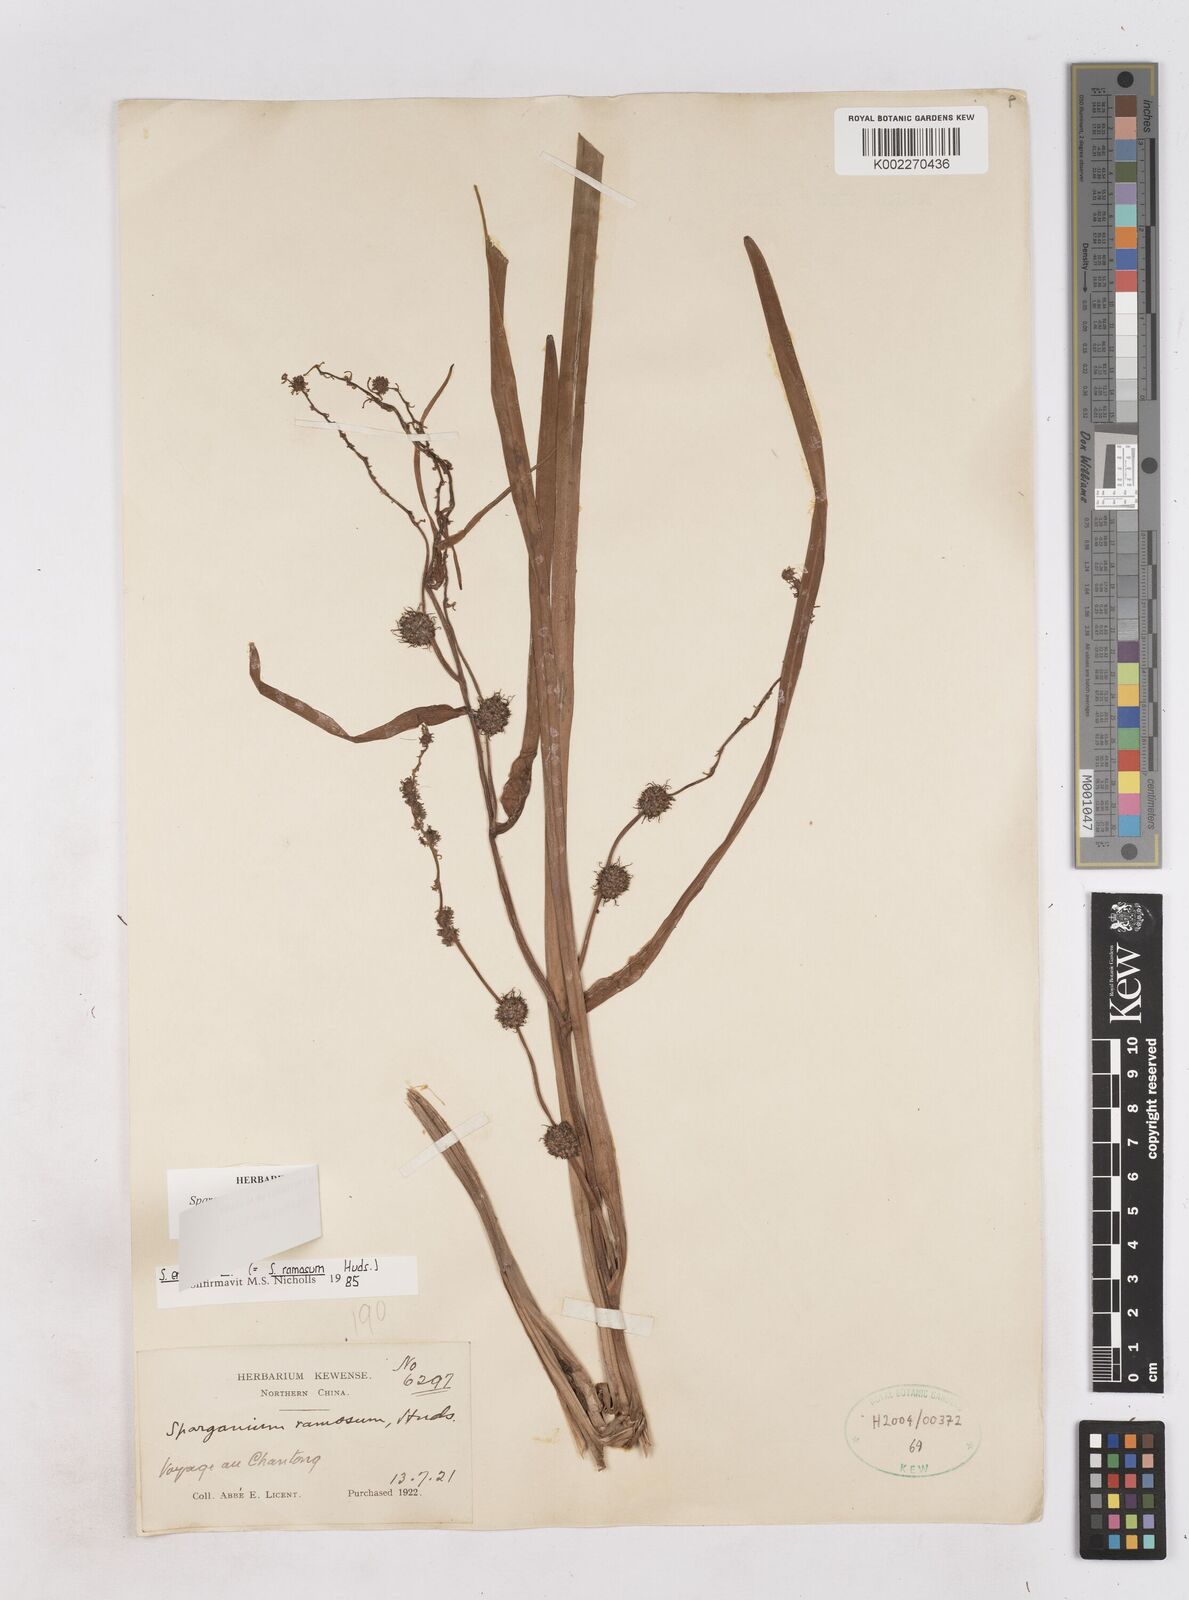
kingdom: Plantae
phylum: Tracheophyta
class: Liliopsida
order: Poales
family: Typhaceae
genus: Sparganium
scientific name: Sparganium stoloniferum
